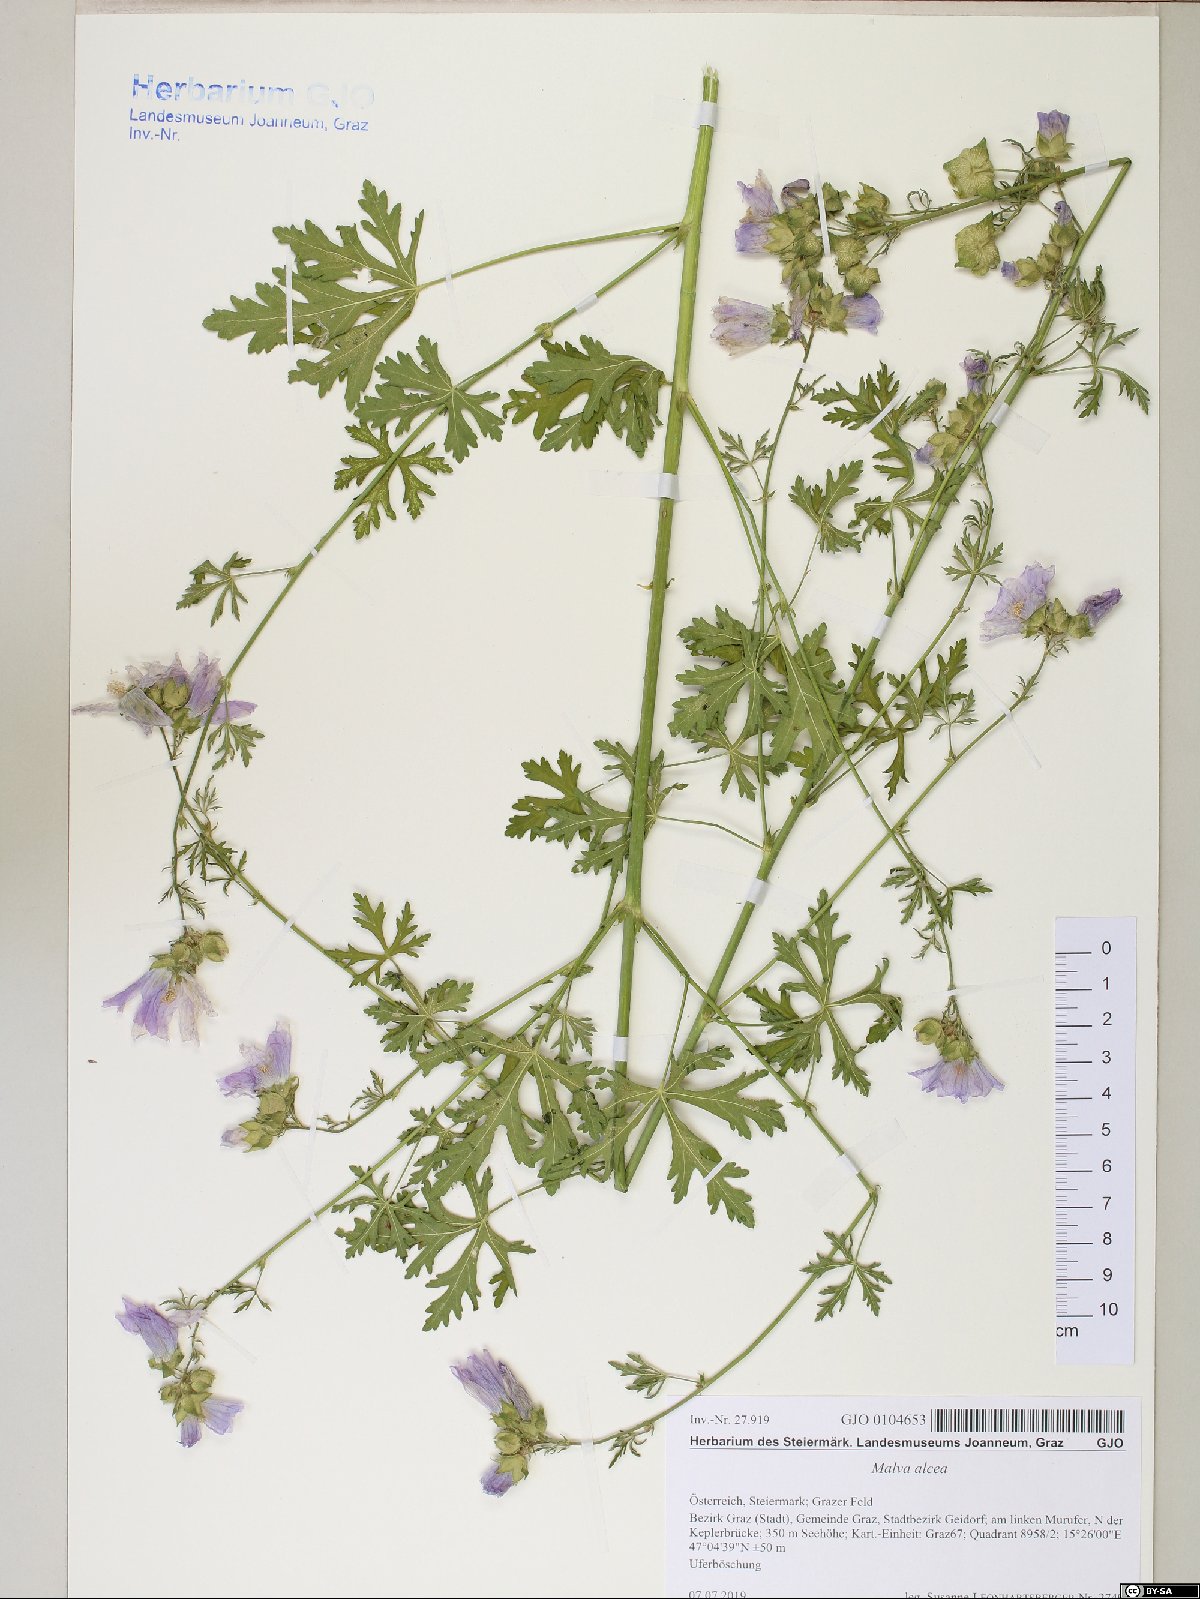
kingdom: Plantae
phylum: Tracheophyta
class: Magnoliopsida
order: Malvales
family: Malvaceae
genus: Malva
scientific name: Malva alcea
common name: Greater musk-mallow
